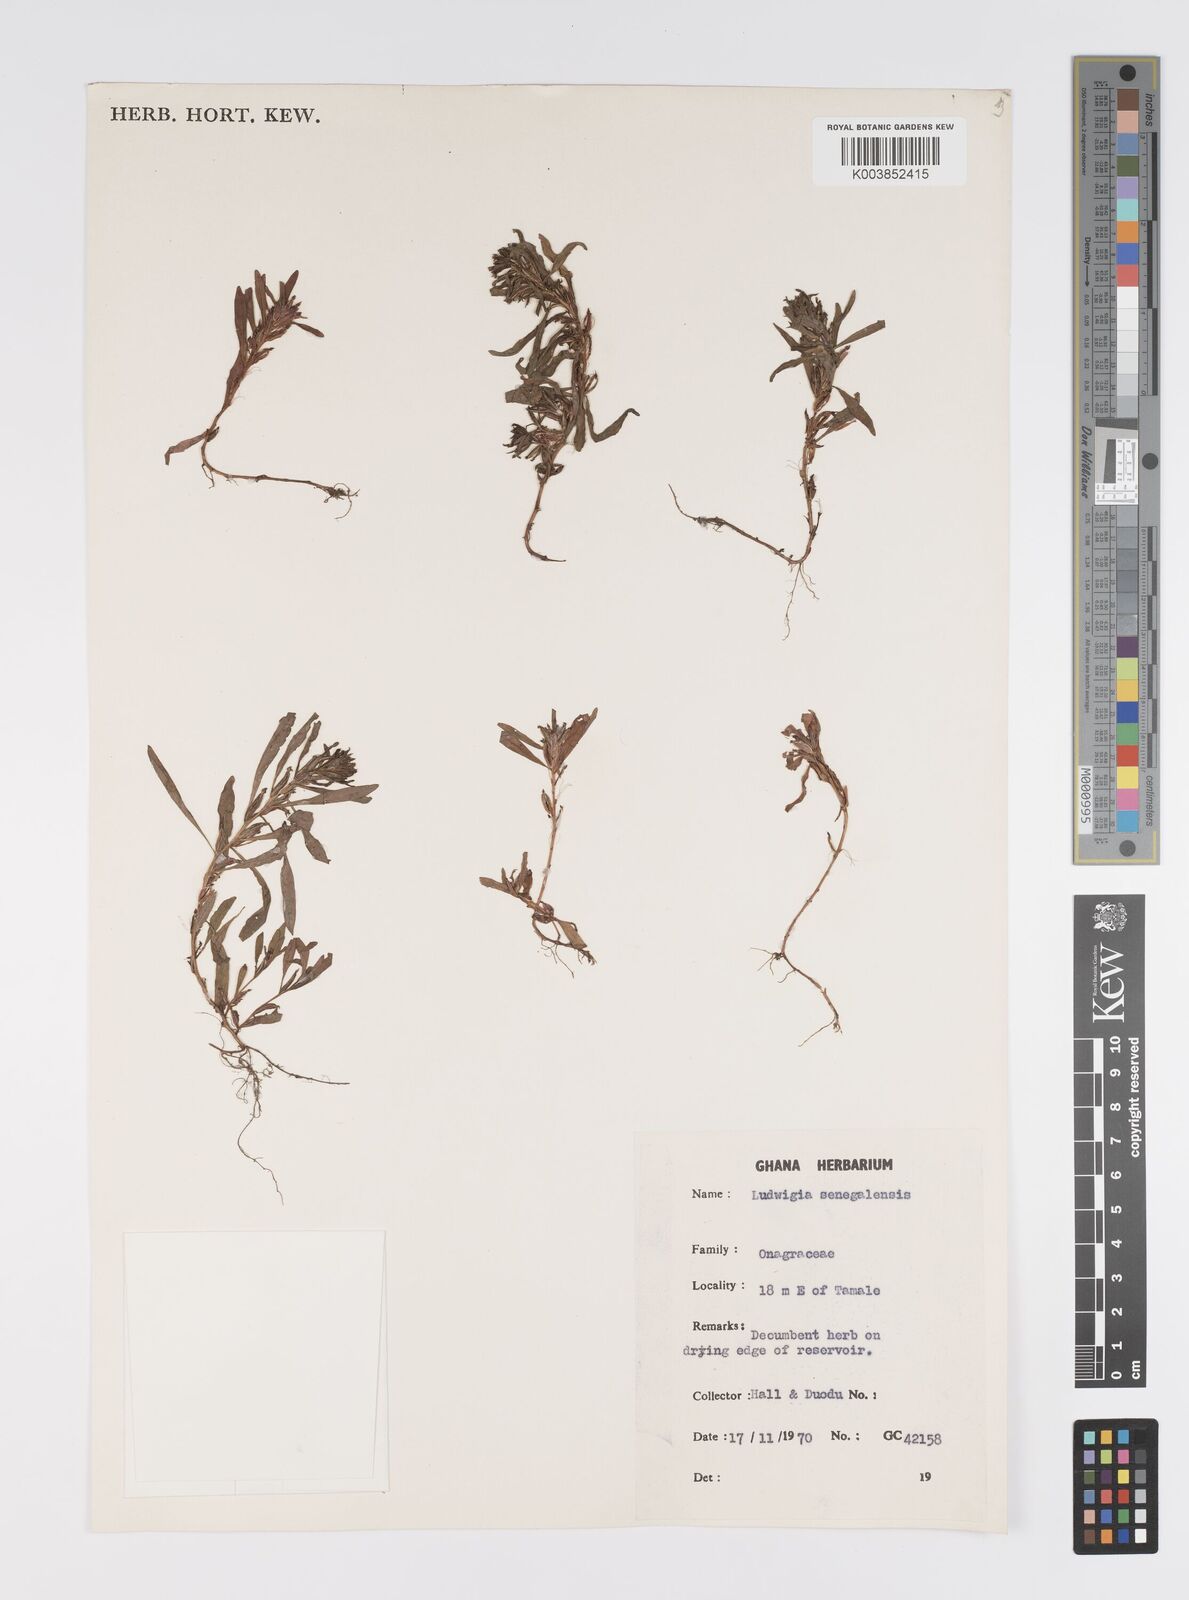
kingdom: Plantae
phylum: Tracheophyta
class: Magnoliopsida
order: Myrtales
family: Onagraceae
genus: Ludwigia
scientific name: Ludwigia senegalensis
